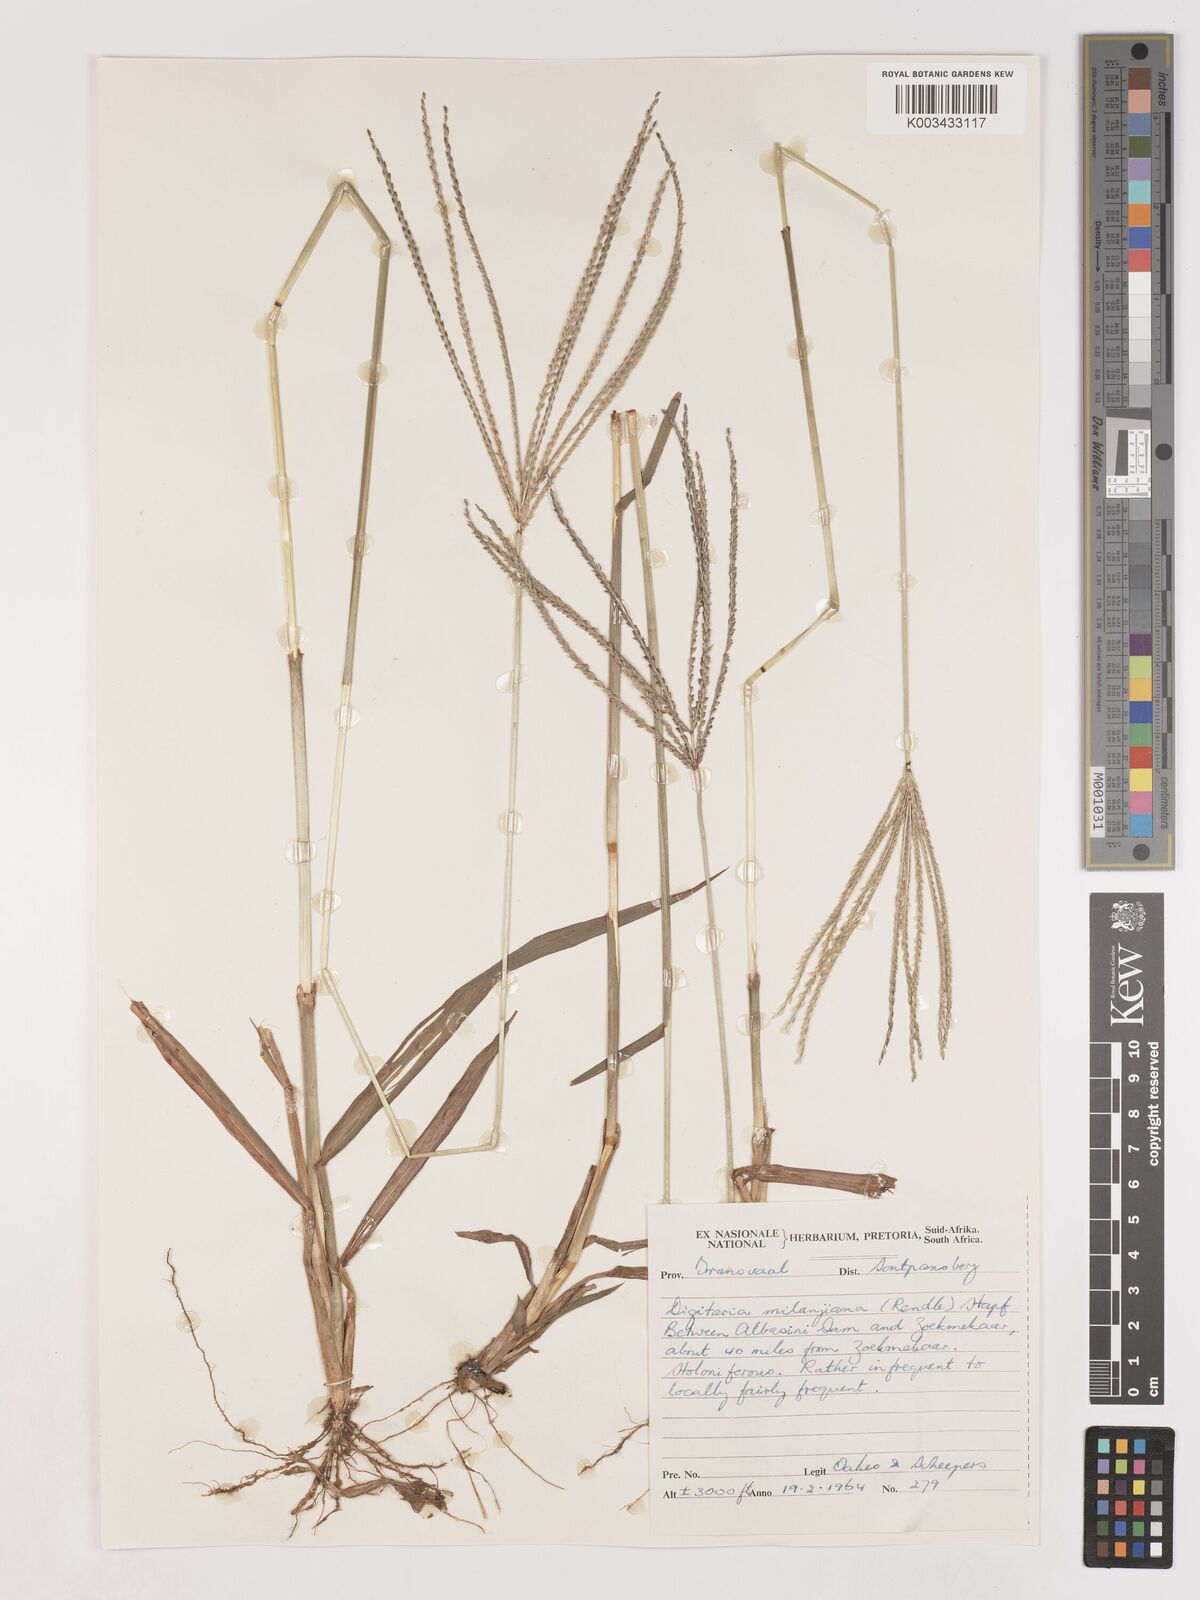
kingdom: Plantae
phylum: Tracheophyta
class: Liliopsida
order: Poales
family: Poaceae
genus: Digitaria
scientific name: Digitaria milanjiana
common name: Madagascar crabgrass
